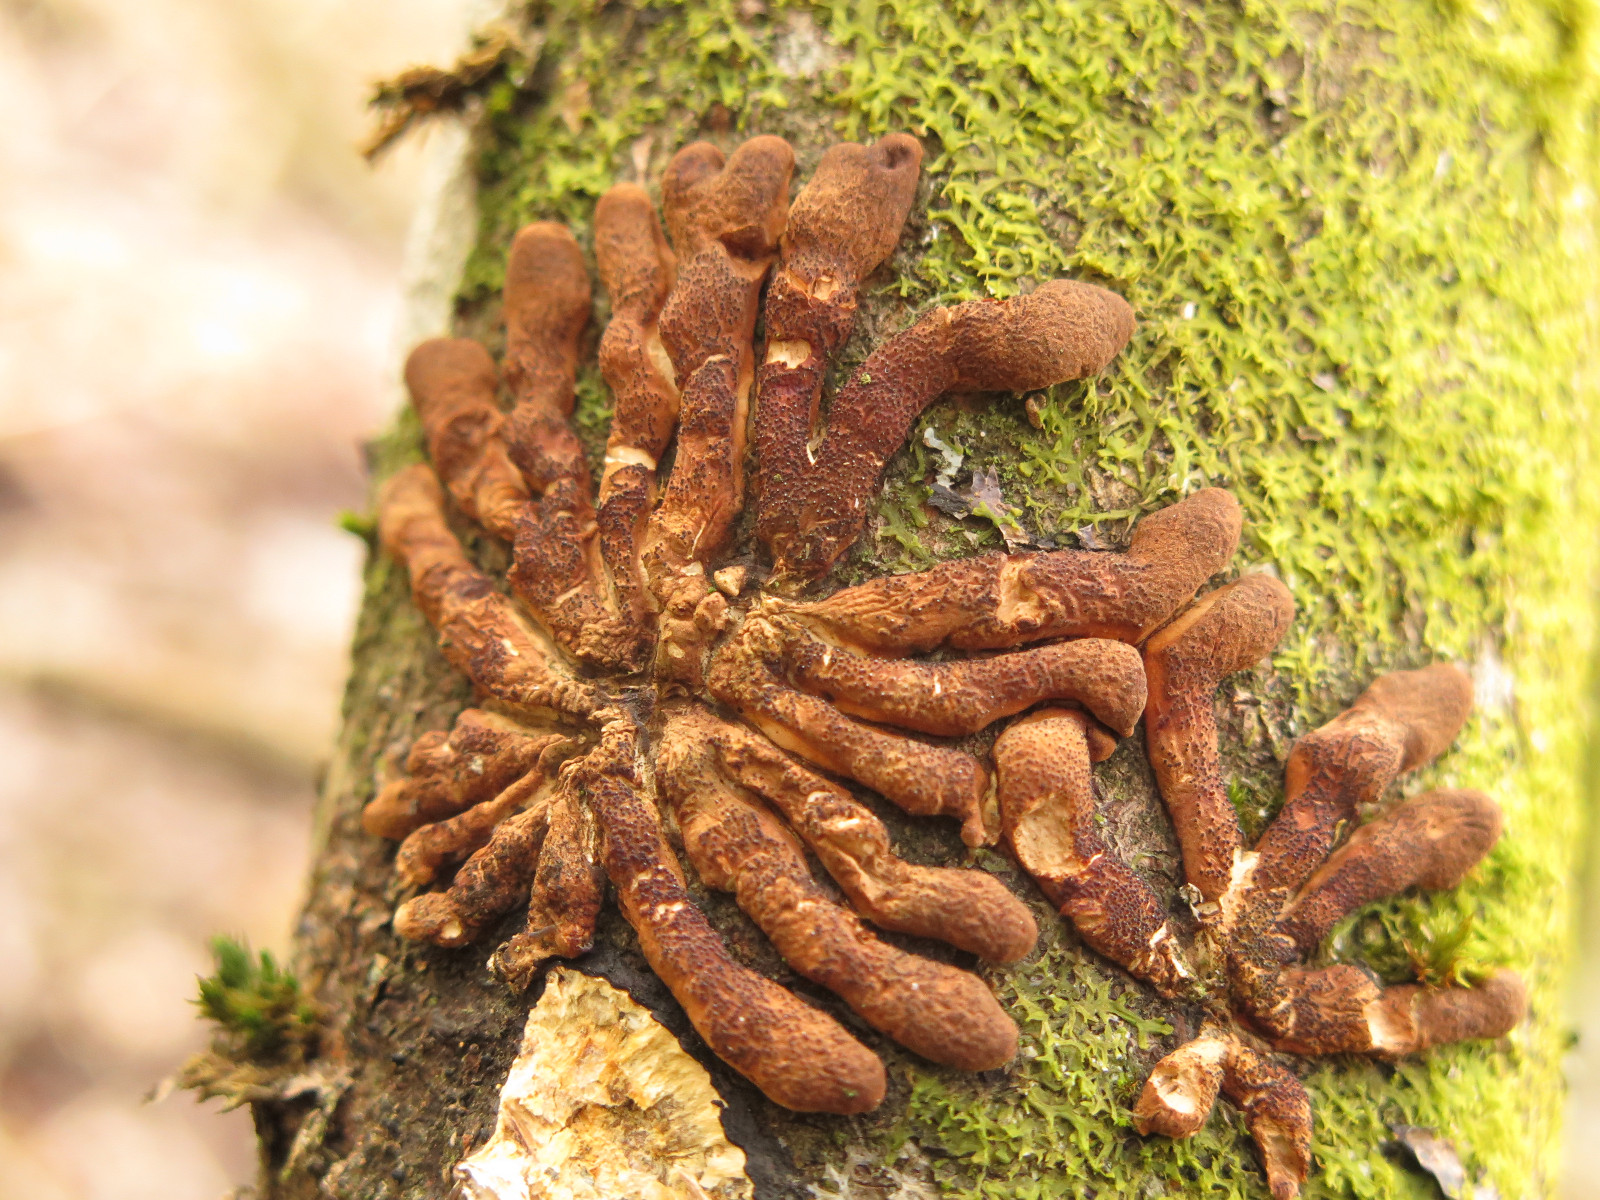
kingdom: Fungi
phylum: Ascomycota
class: Sordariomycetes
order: Hypocreales
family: Hypocreaceae
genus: Hypocreopsis
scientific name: Hypocreopsis lichenoides
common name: pilfinger
